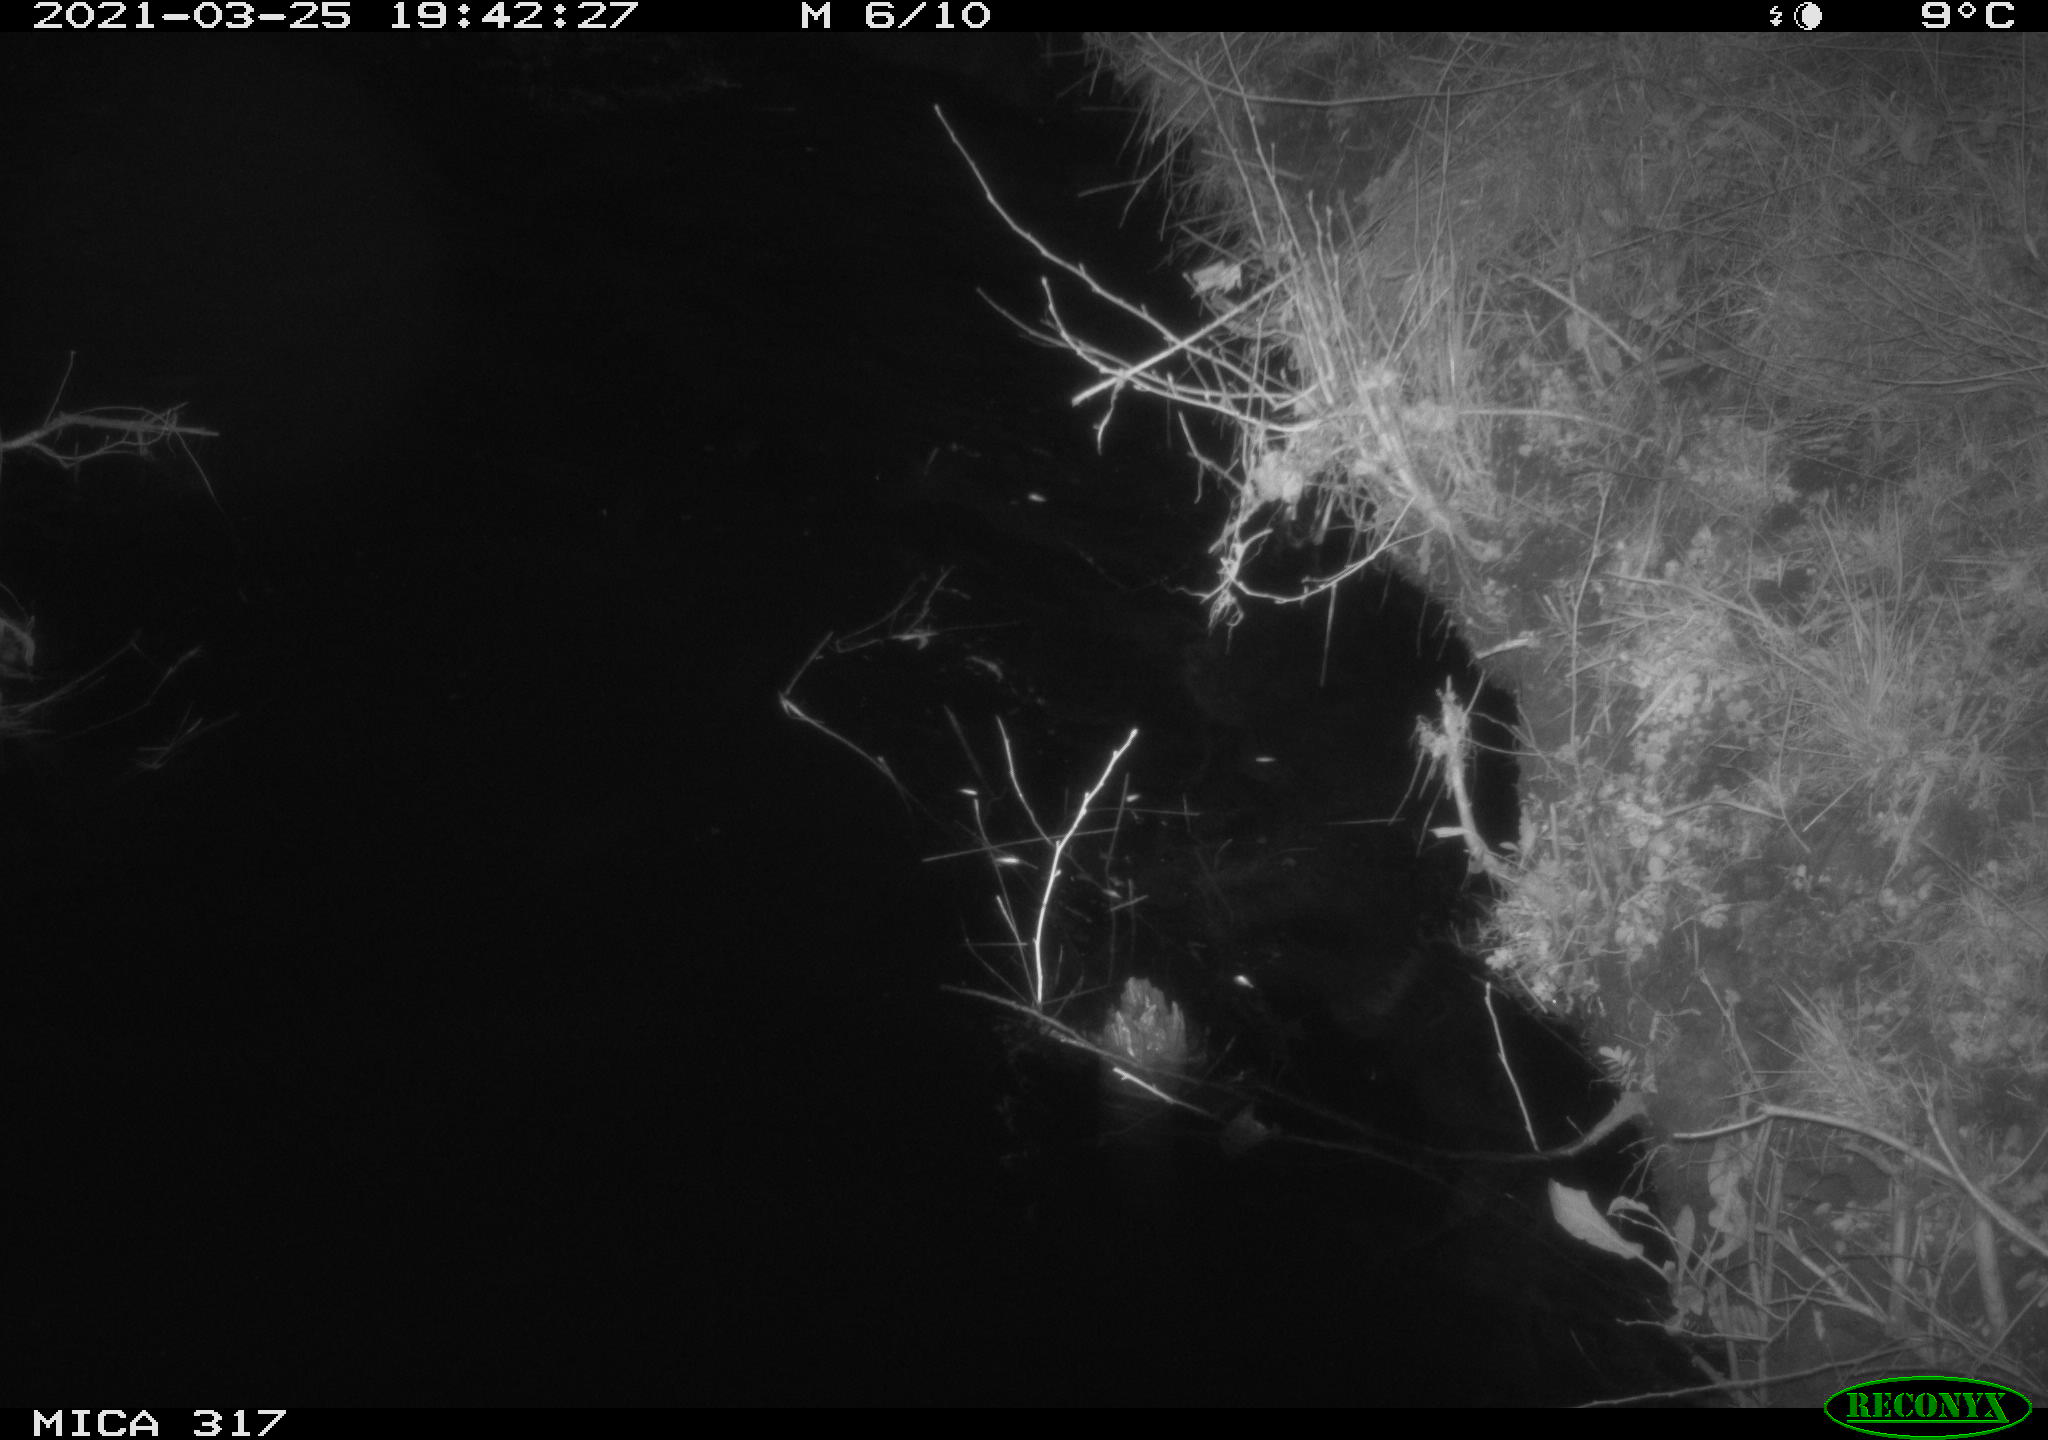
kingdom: Animalia
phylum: Chordata
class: Aves
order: Anseriformes
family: Anatidae
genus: Anas
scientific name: Anas platyrhynchos
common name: Mallard
